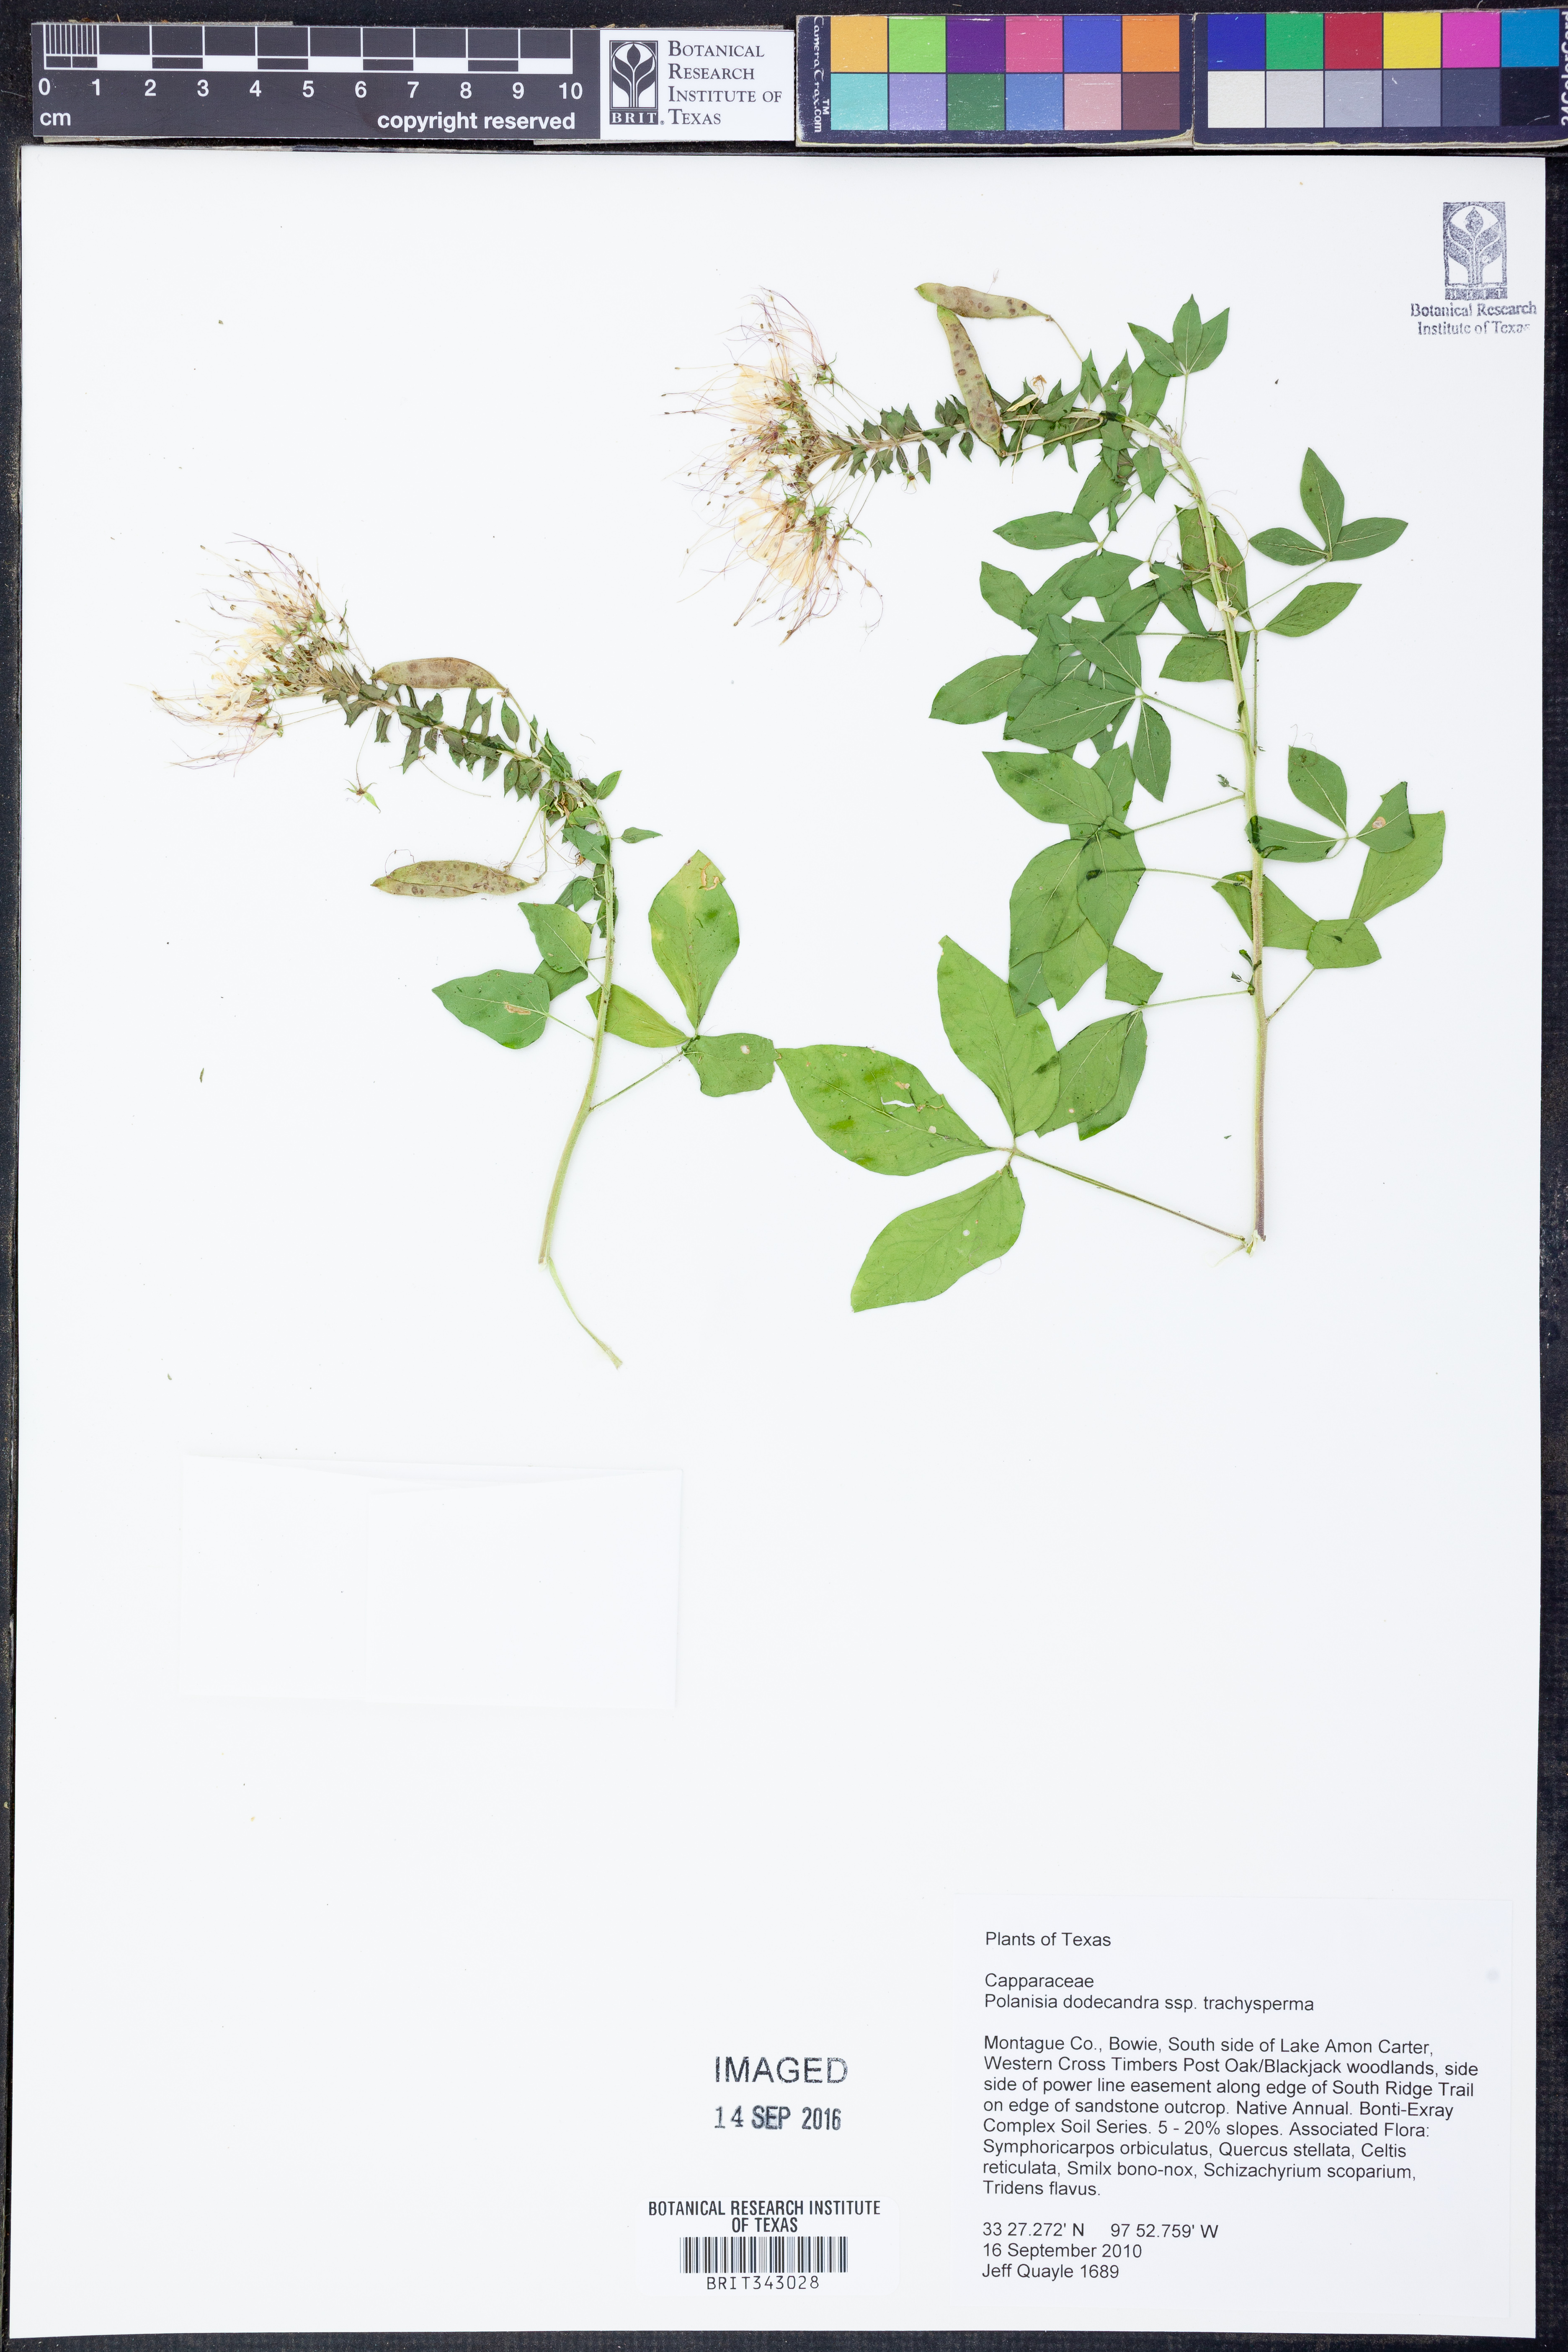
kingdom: Plantae
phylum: Tracheophyta
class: Magnoliopsida
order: Brassicales
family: Cleomaceae
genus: Polanisia
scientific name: Polanisia trachysperma
